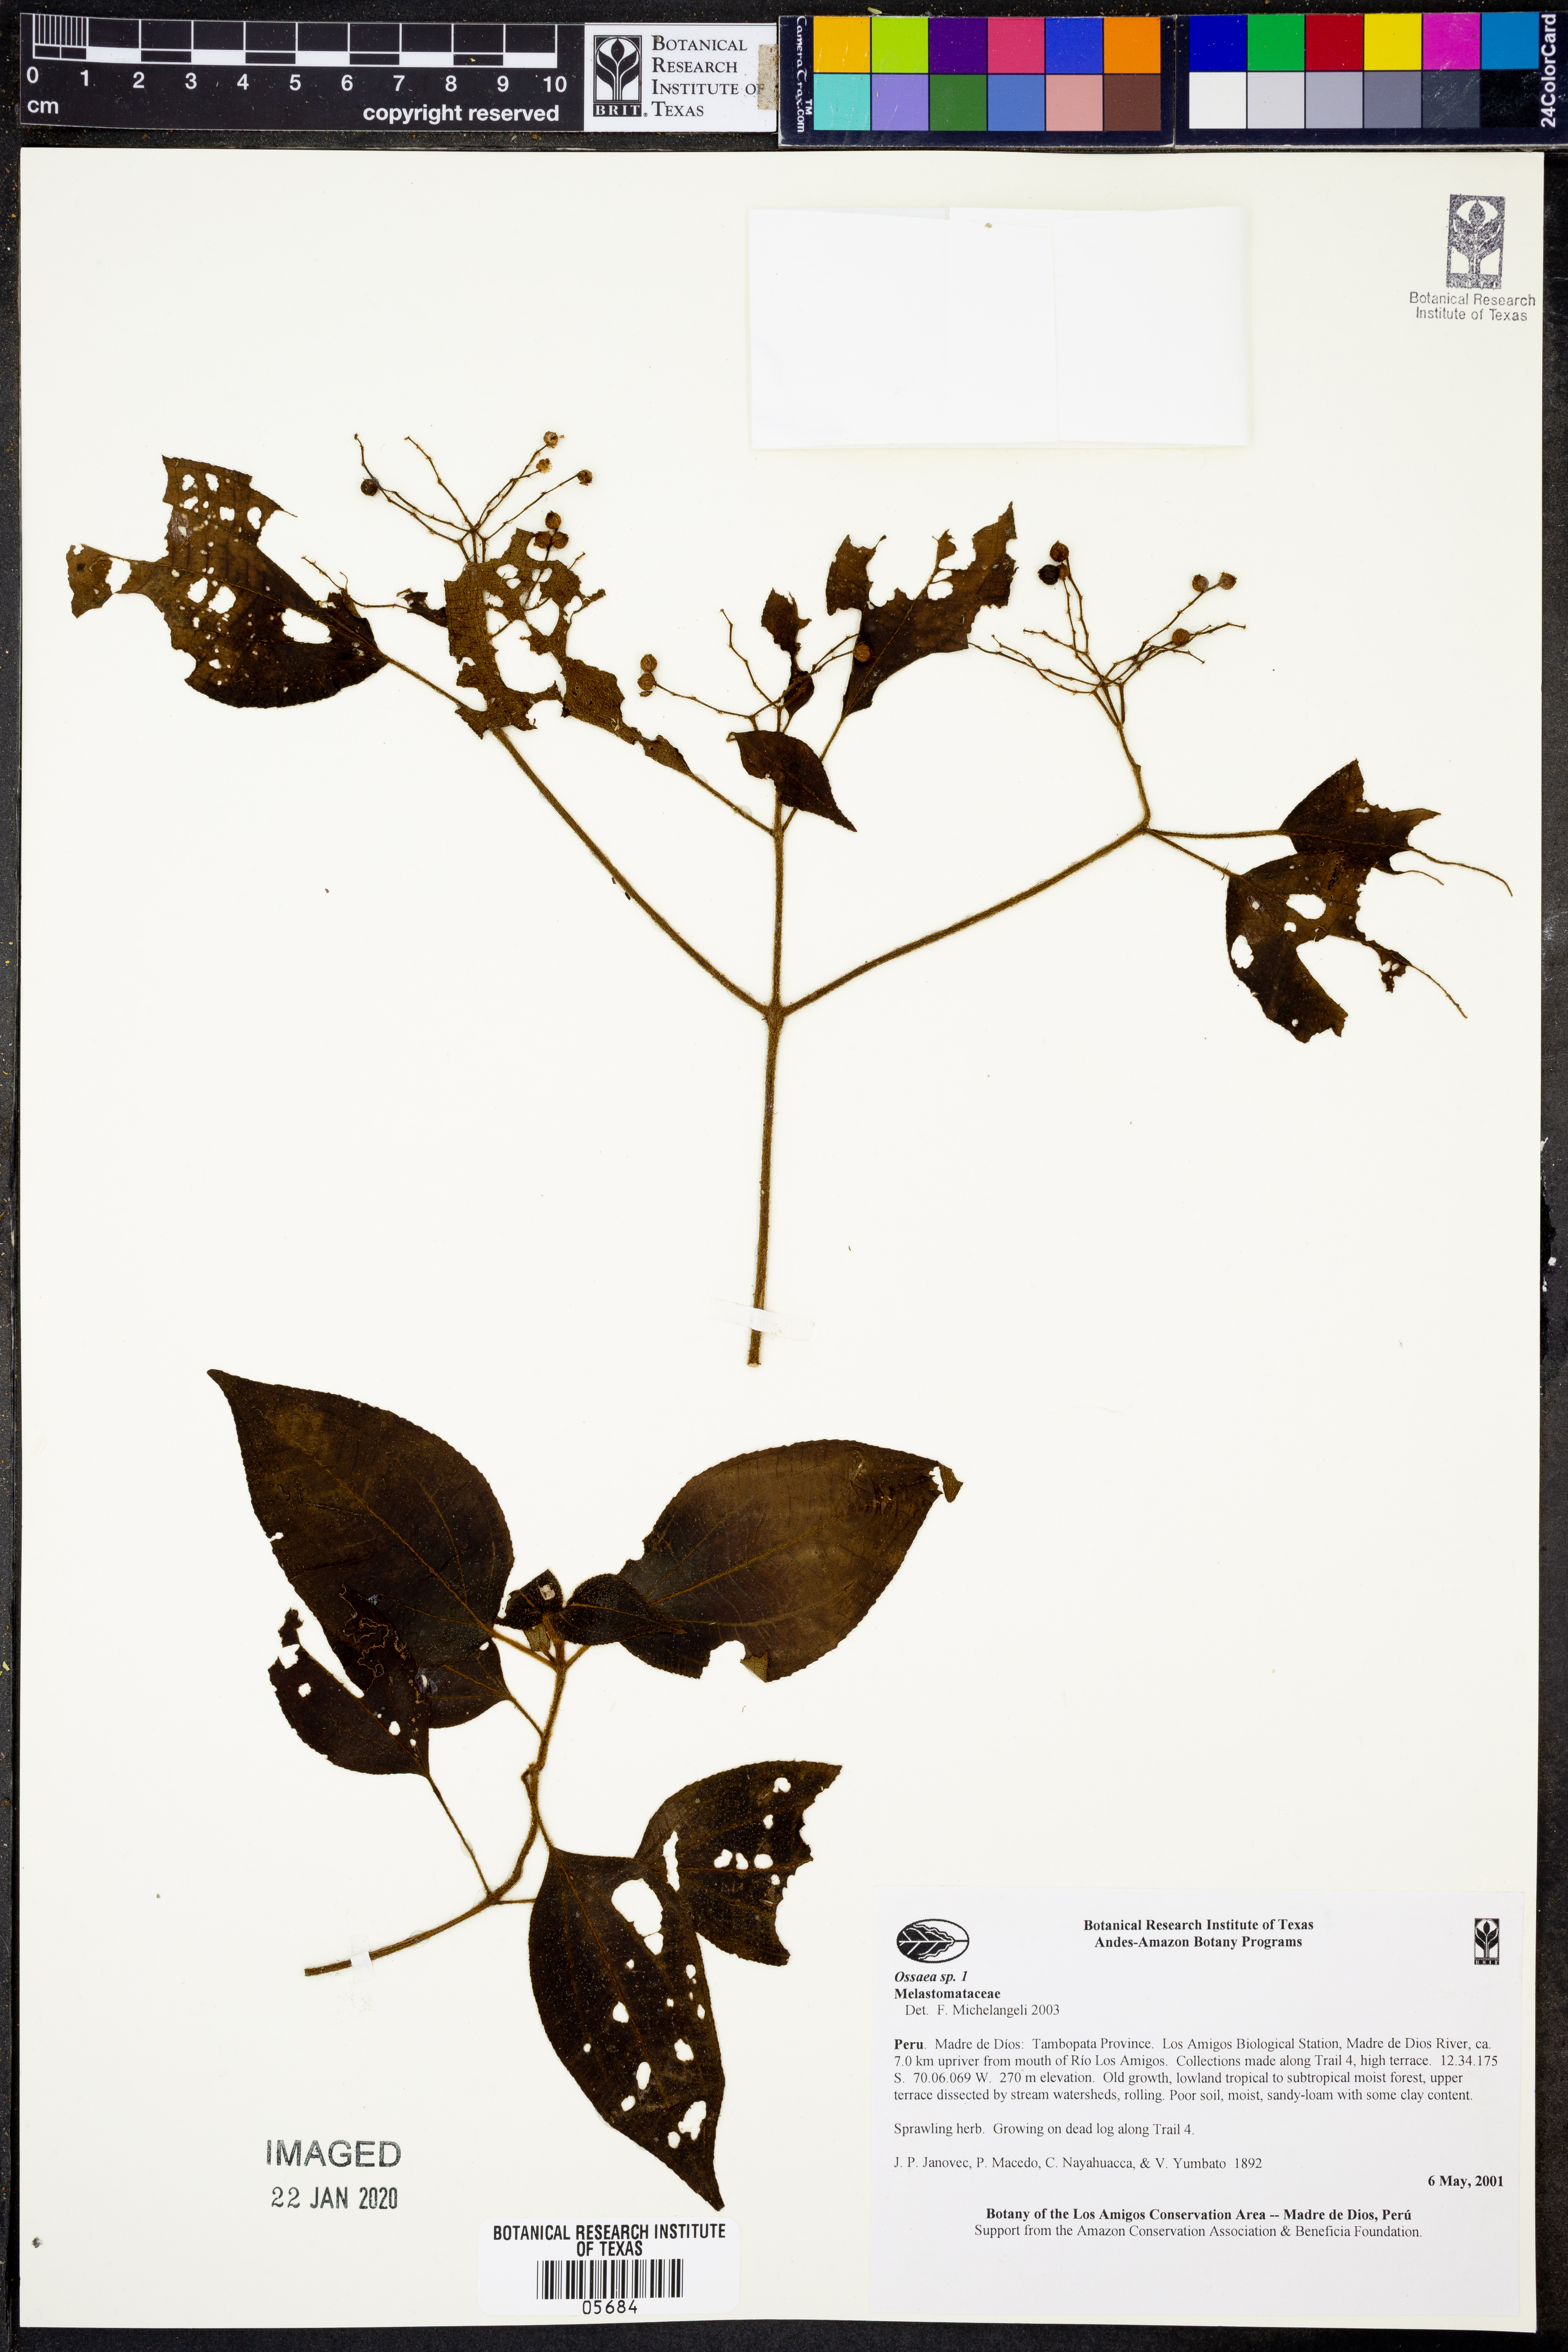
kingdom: Plantae
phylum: Tracheophyta
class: Magnoliopsida
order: Myrtales
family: Melastomataceae
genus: Ossaea
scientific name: Ossaea
